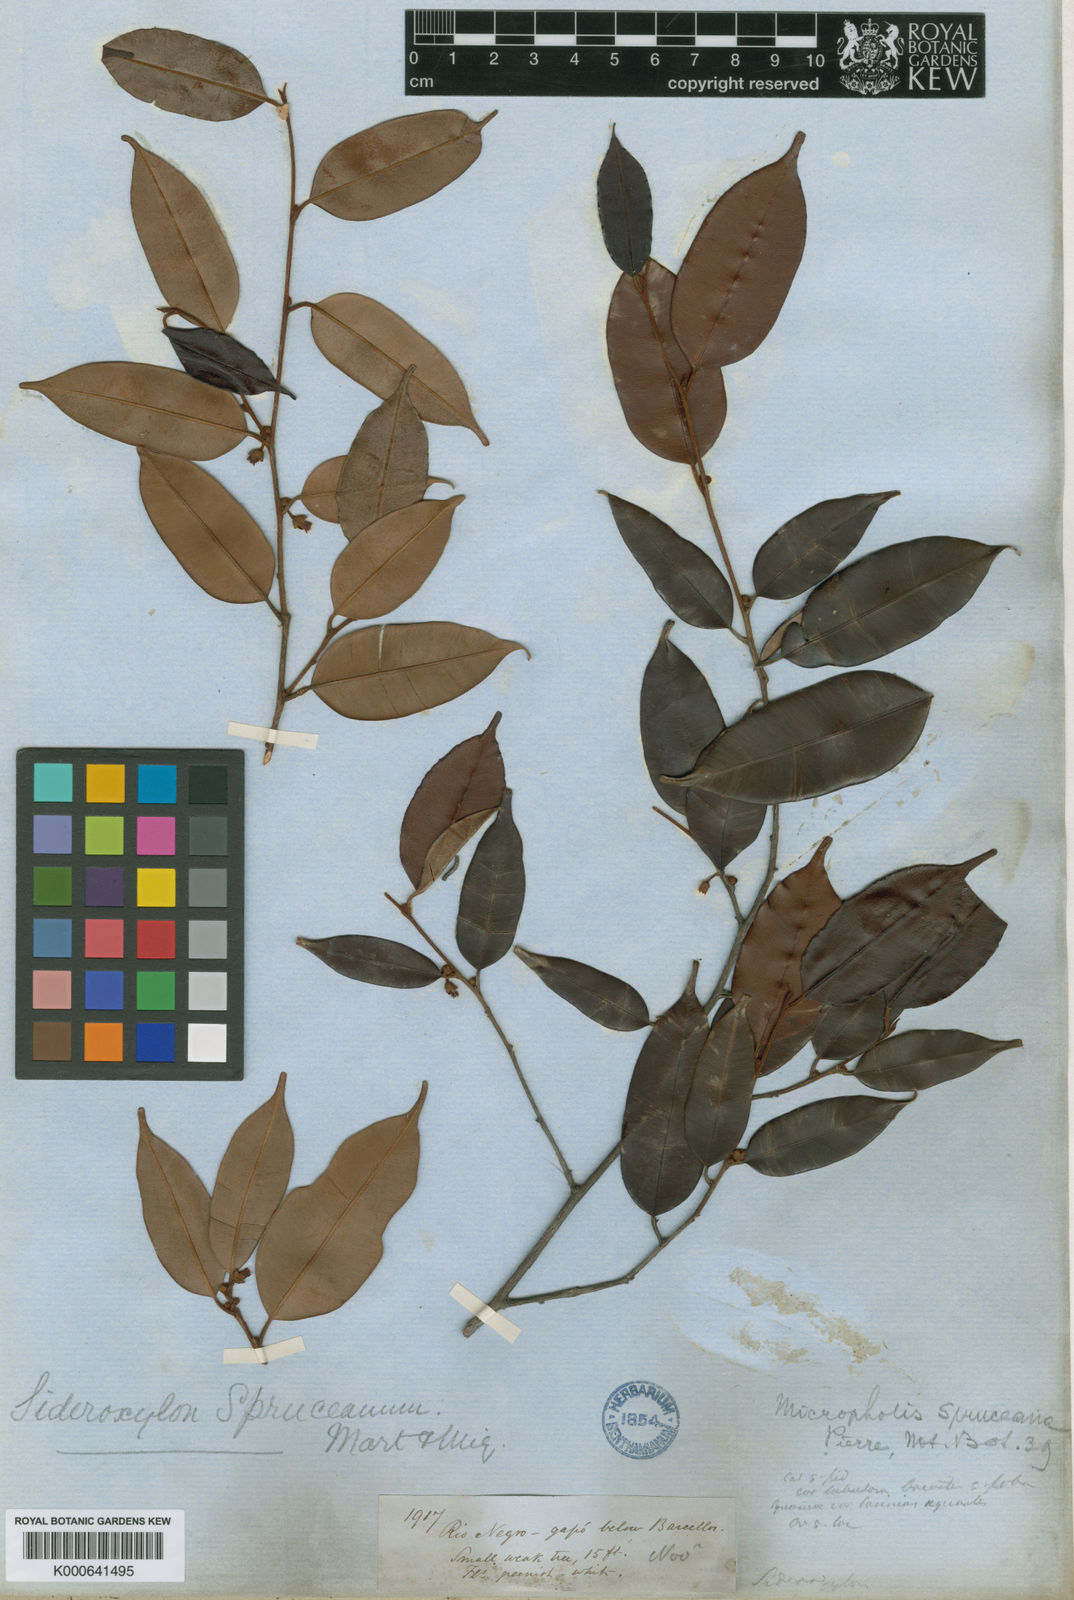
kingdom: Plantae
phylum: Tracheophyta
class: Magnoliopsida
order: Ericales
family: Sapotaceae
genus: Micropholis
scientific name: Micropholis humboldtiana
